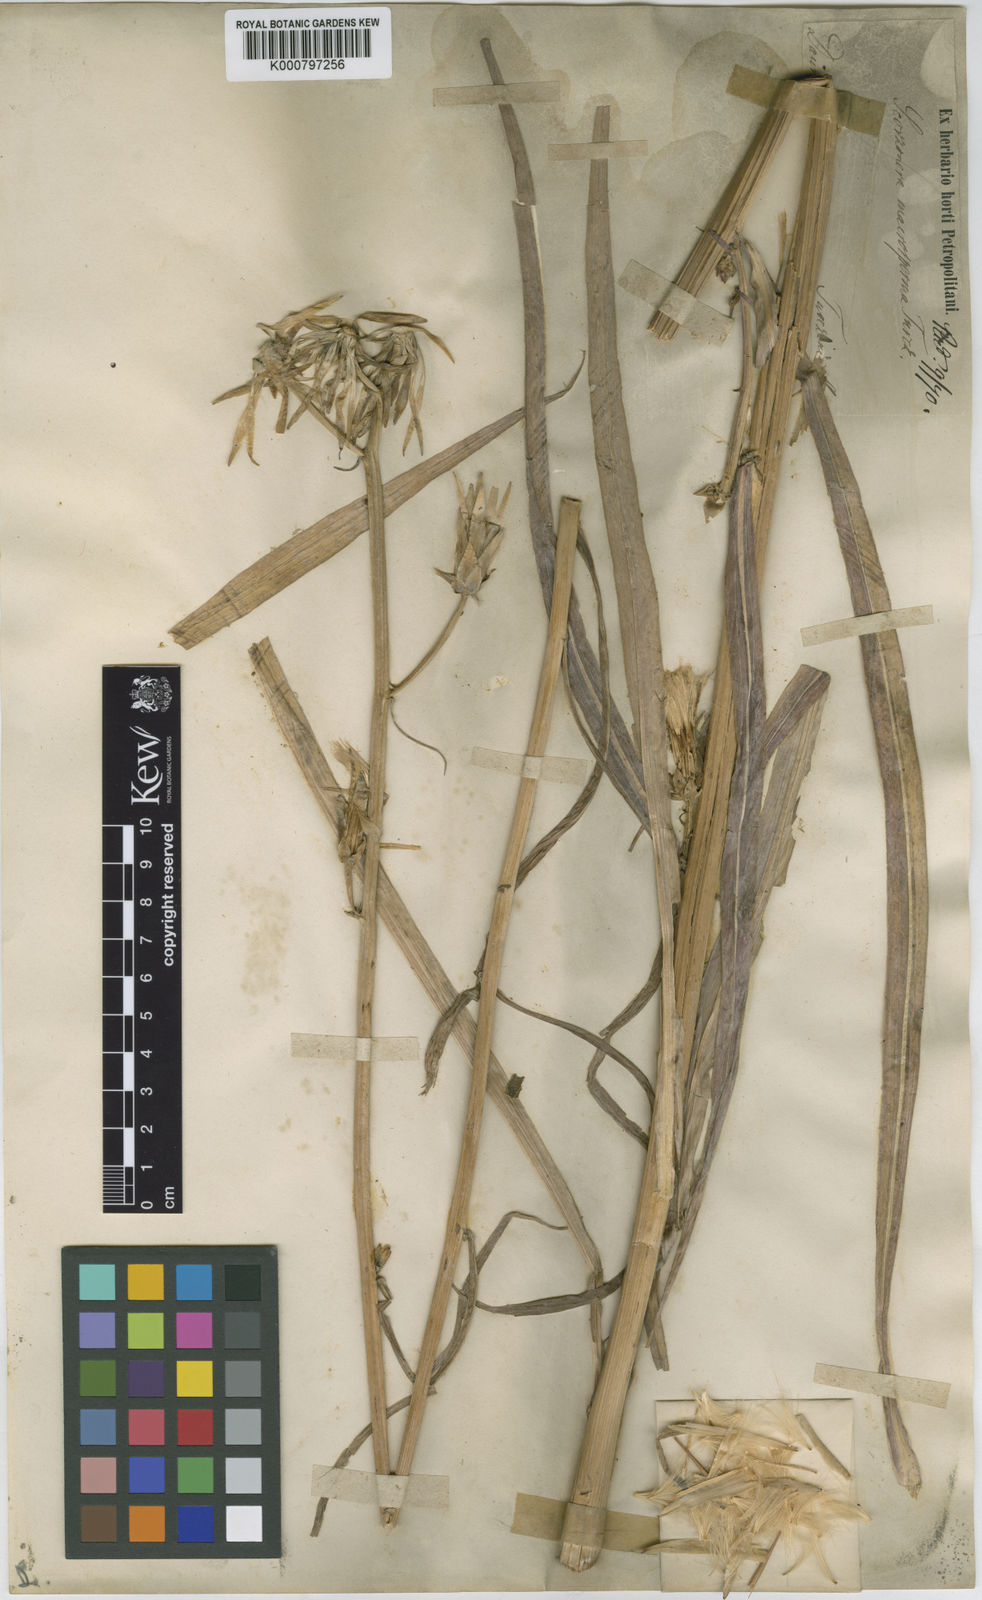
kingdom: Plantae
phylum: Tracheophyta
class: Magnoliopsida
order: Asterales
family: Asteraceae
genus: Scorzonera
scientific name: Scorzonera
